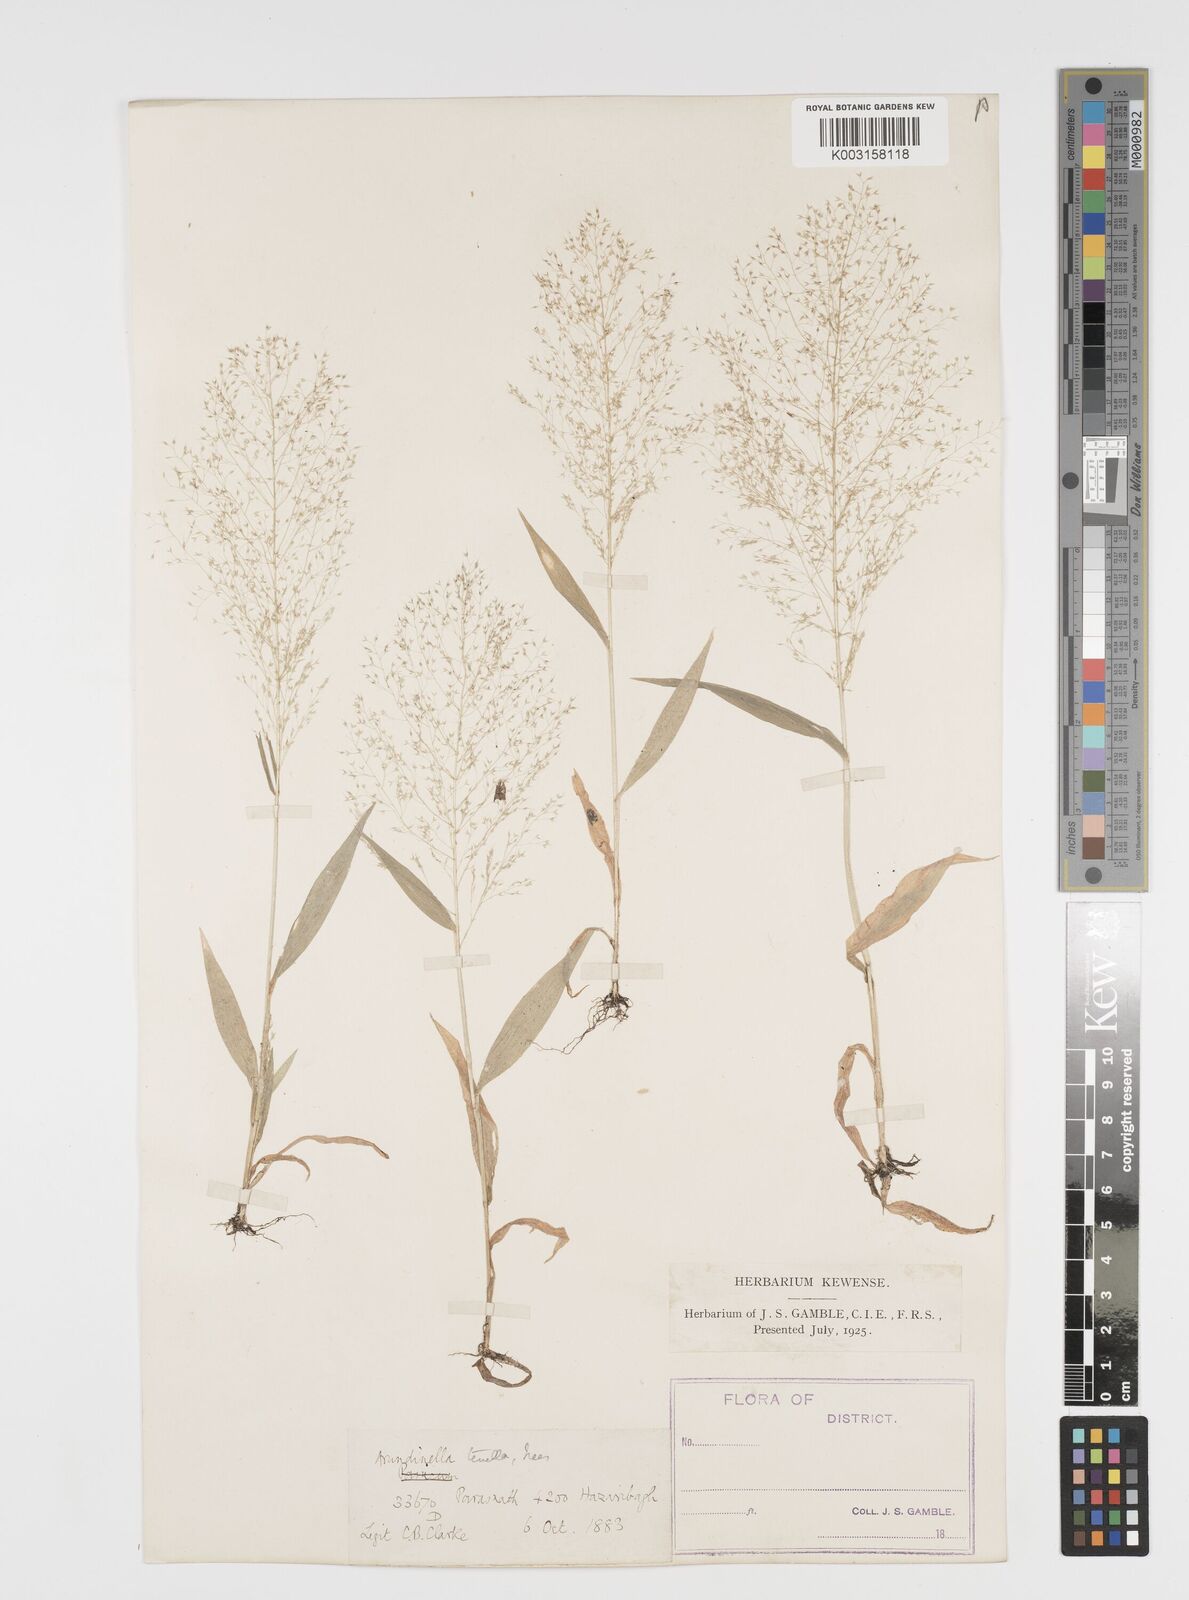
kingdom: Plantae
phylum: Tracheophyta
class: Liliopsida
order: Poales
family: Poaceae
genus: Arundinella
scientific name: Arundinella pumila
